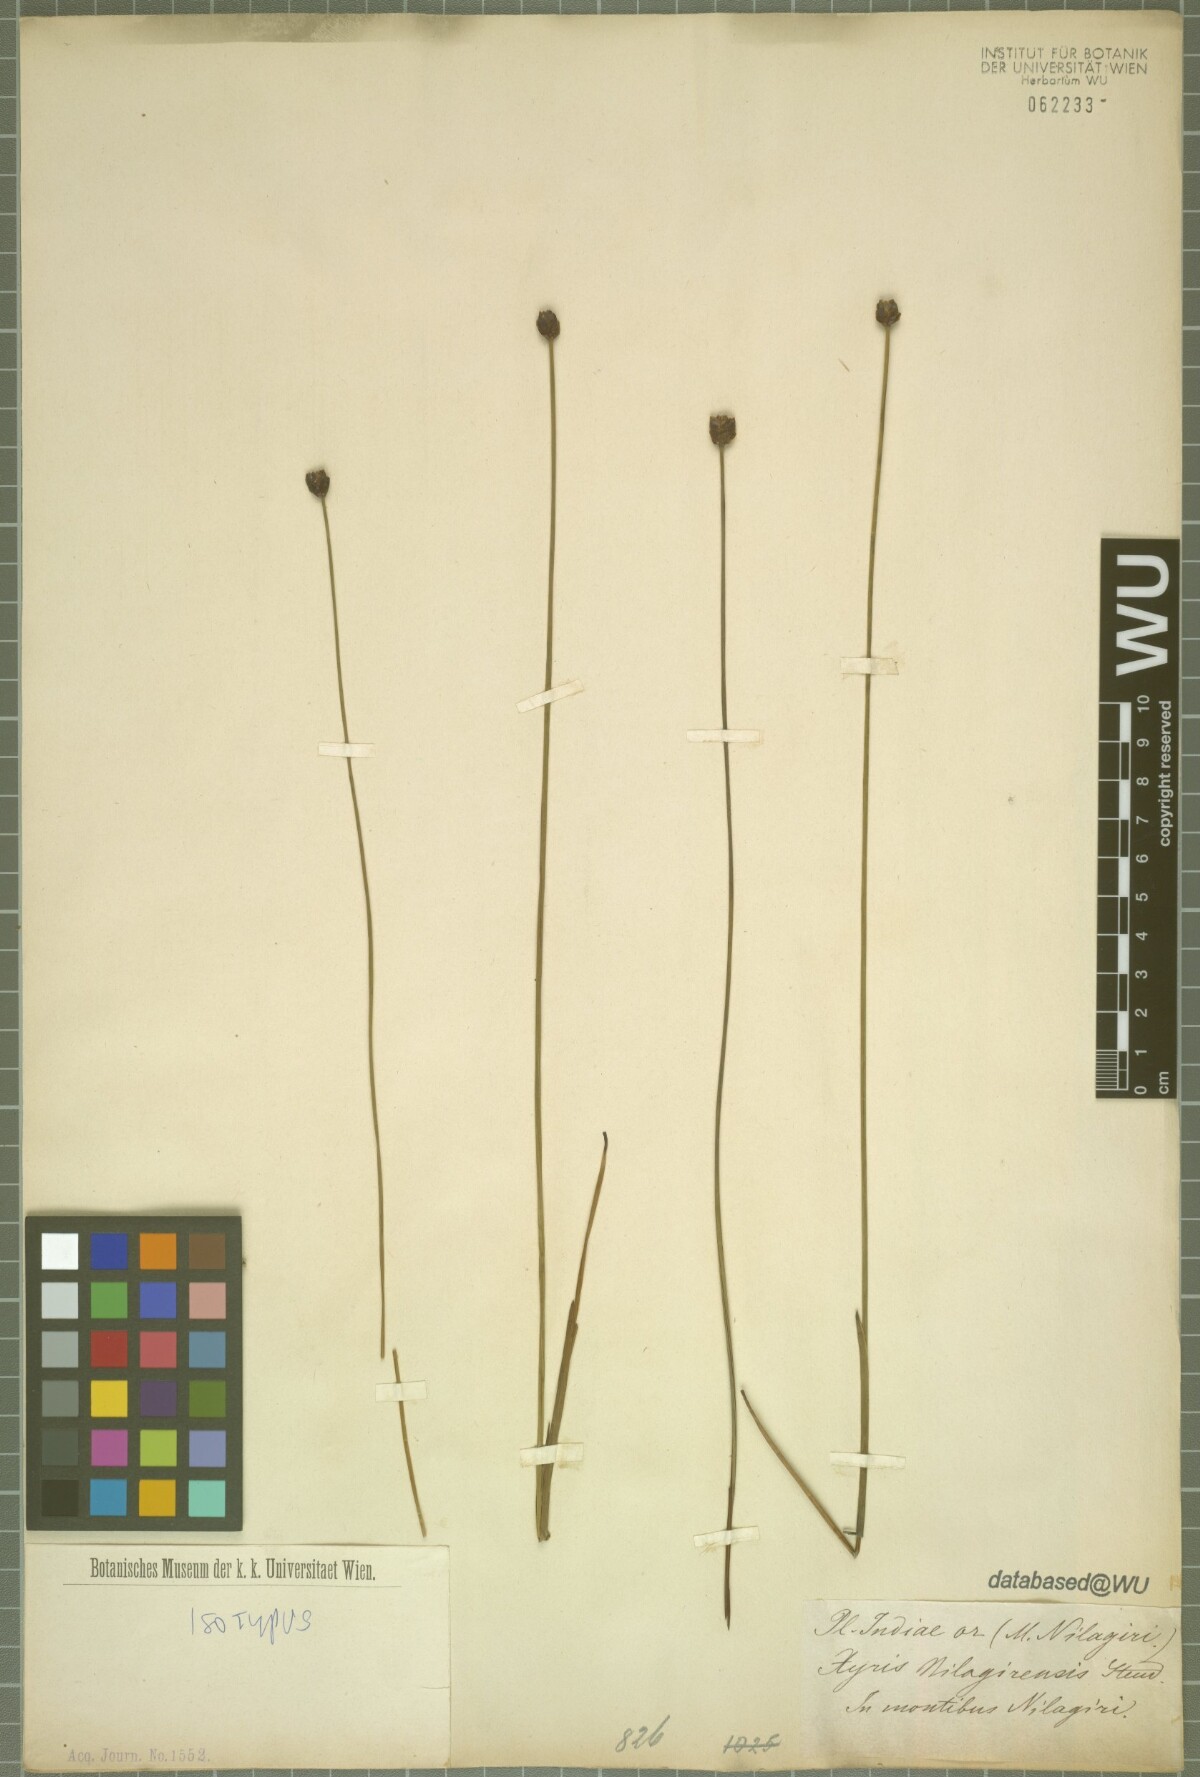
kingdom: Plantae
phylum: Tracheophyta
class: Liliopsida
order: Poales
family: Xyridaceae
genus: Xyris
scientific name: Xyris capensis
